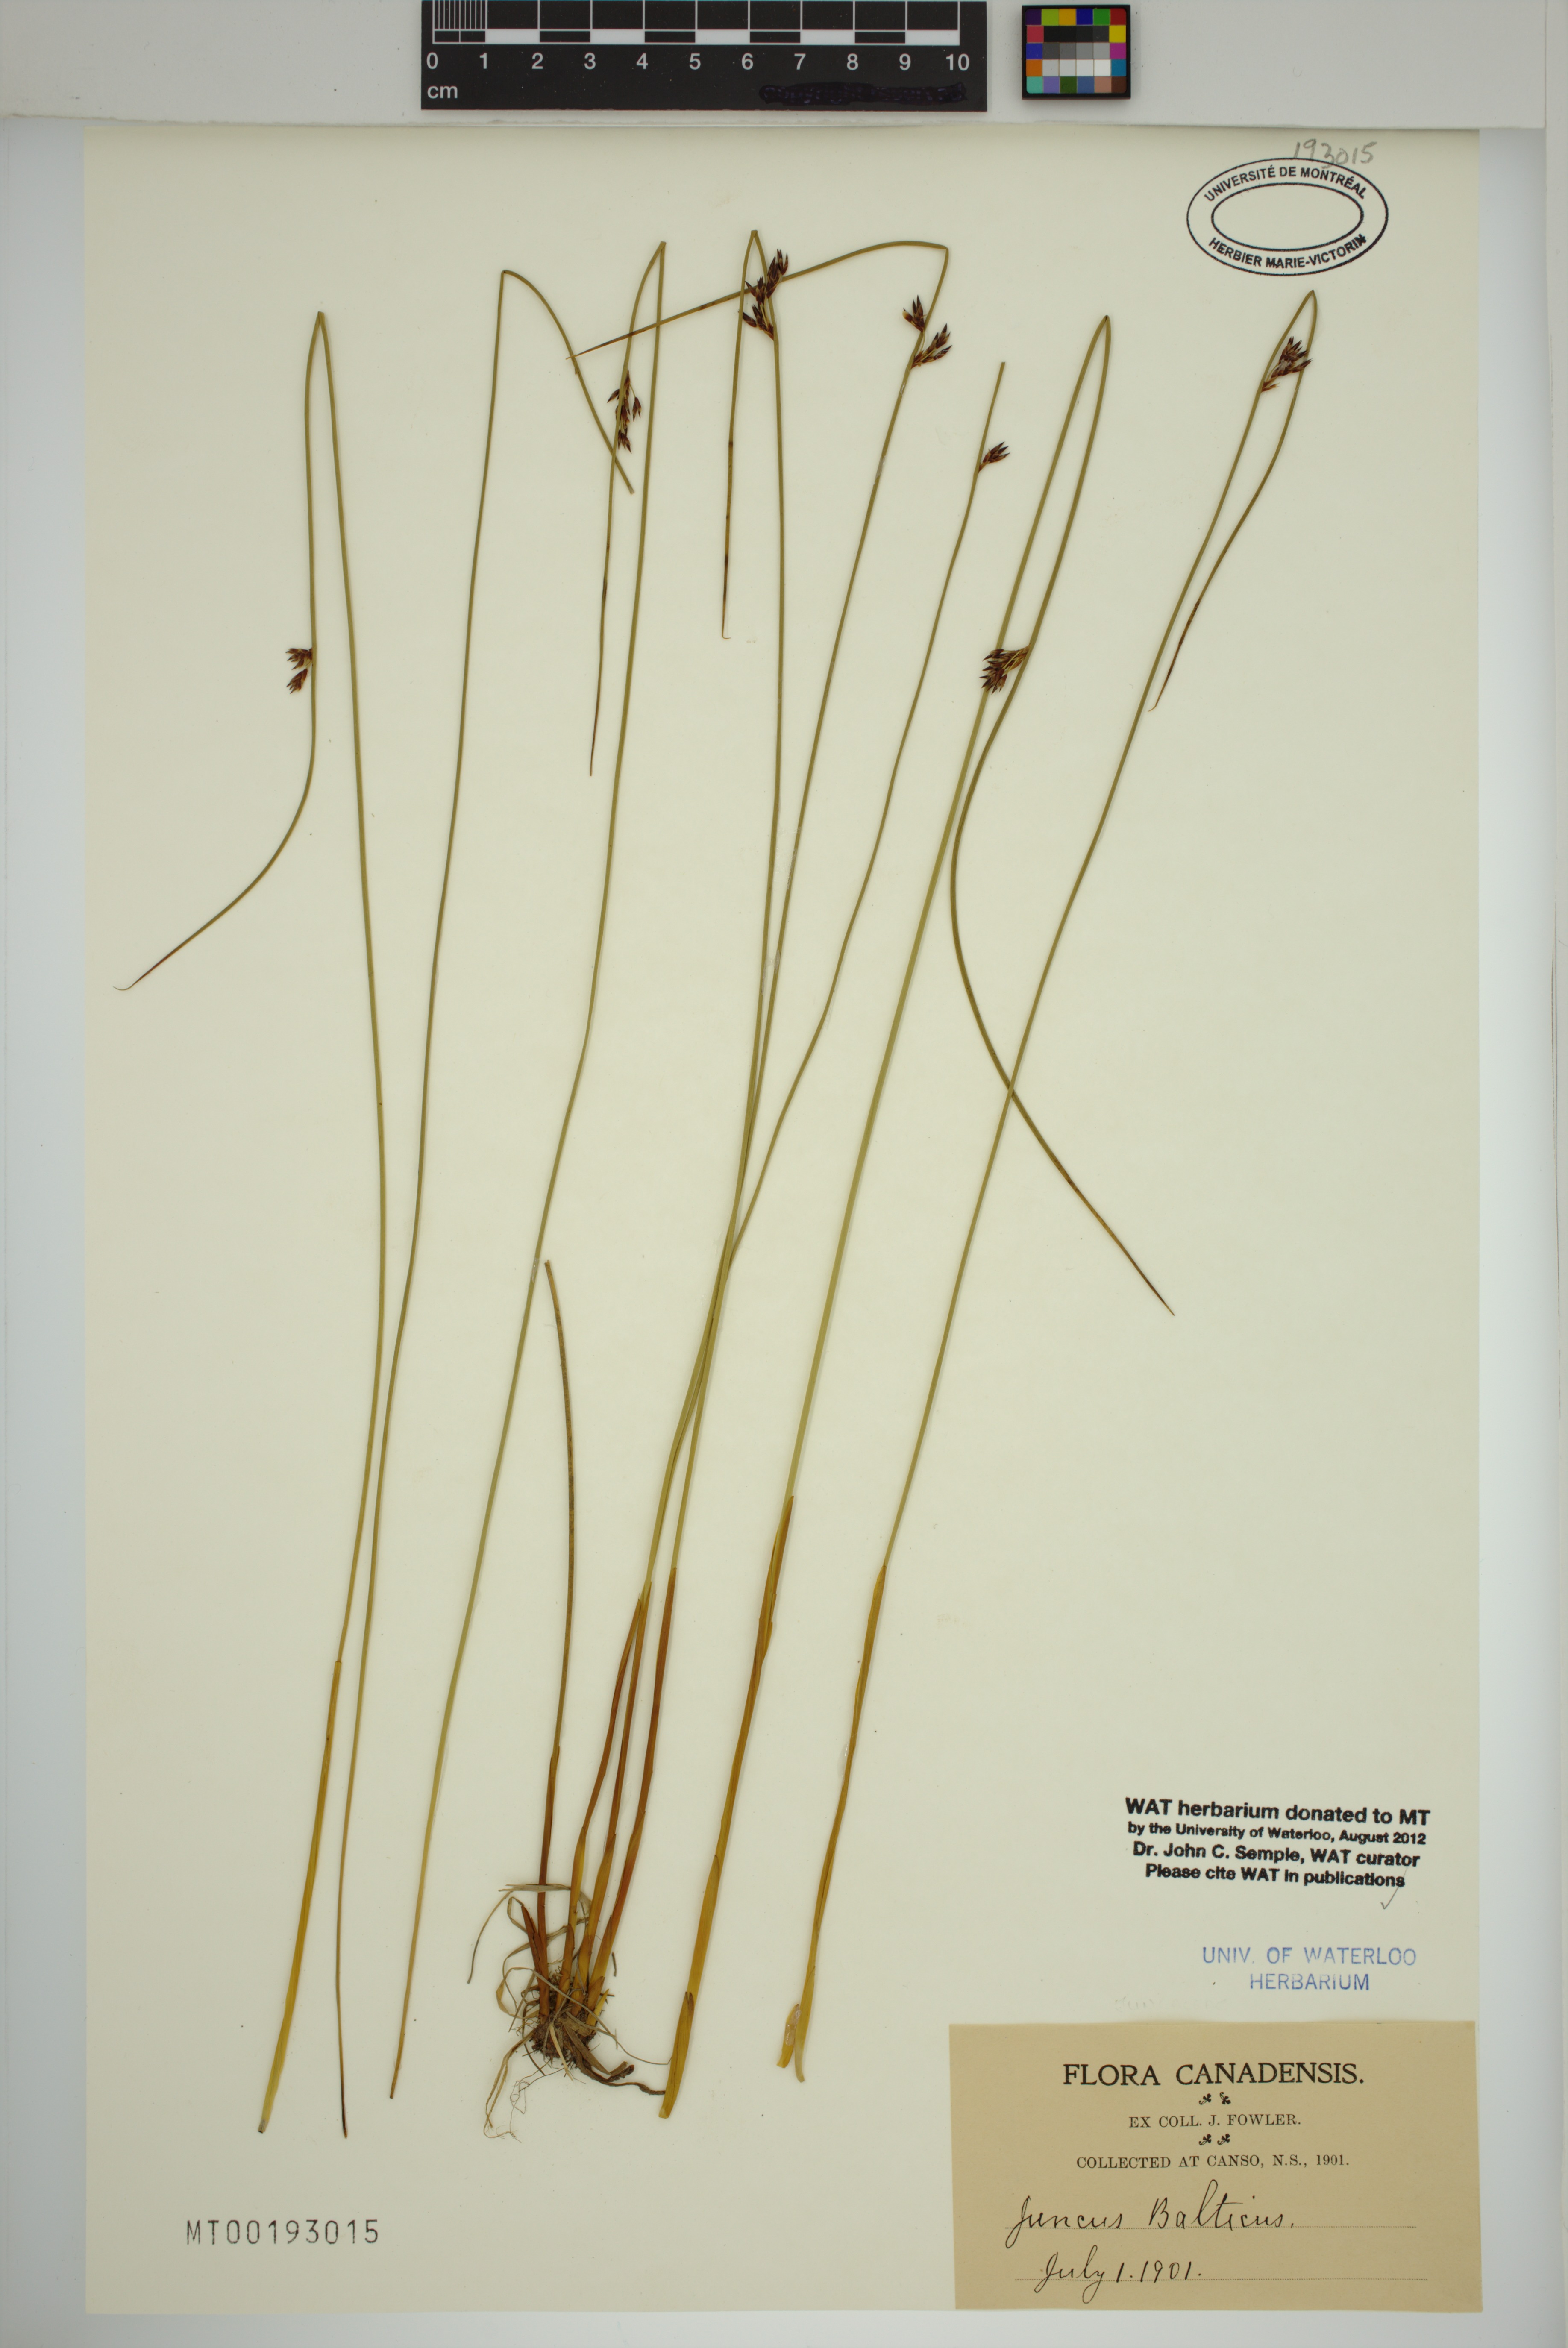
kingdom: Plantae
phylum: Tracheophyta
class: Liliopsida
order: Poales
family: Juncaceae
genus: Juncus
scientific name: Juncus balticus
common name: Baltic rush
